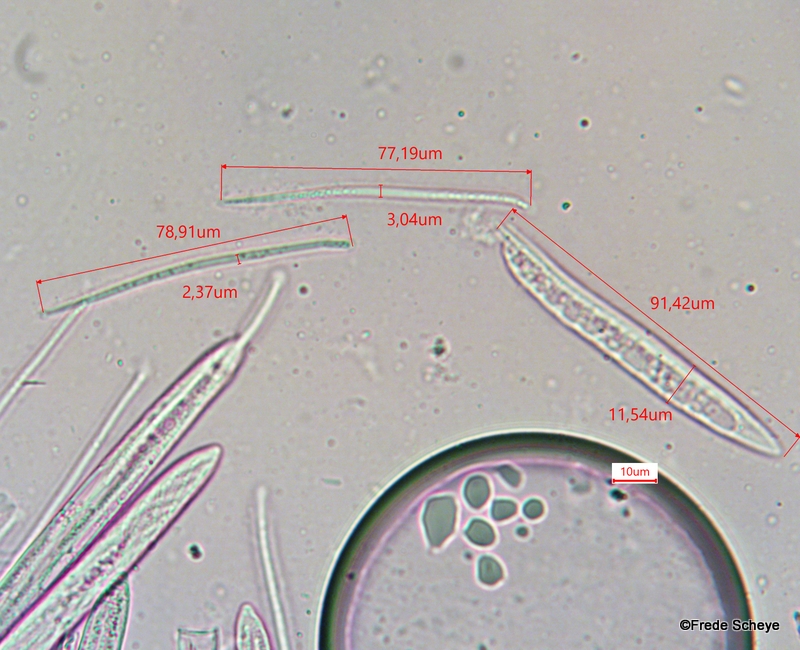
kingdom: Fungi
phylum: Ascomycota
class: Leotiomycetes
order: Rhytismatales
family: Rhytismataceae
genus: Lophodermium
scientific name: Lophodermium pinastri
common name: fyrre-fureplet
